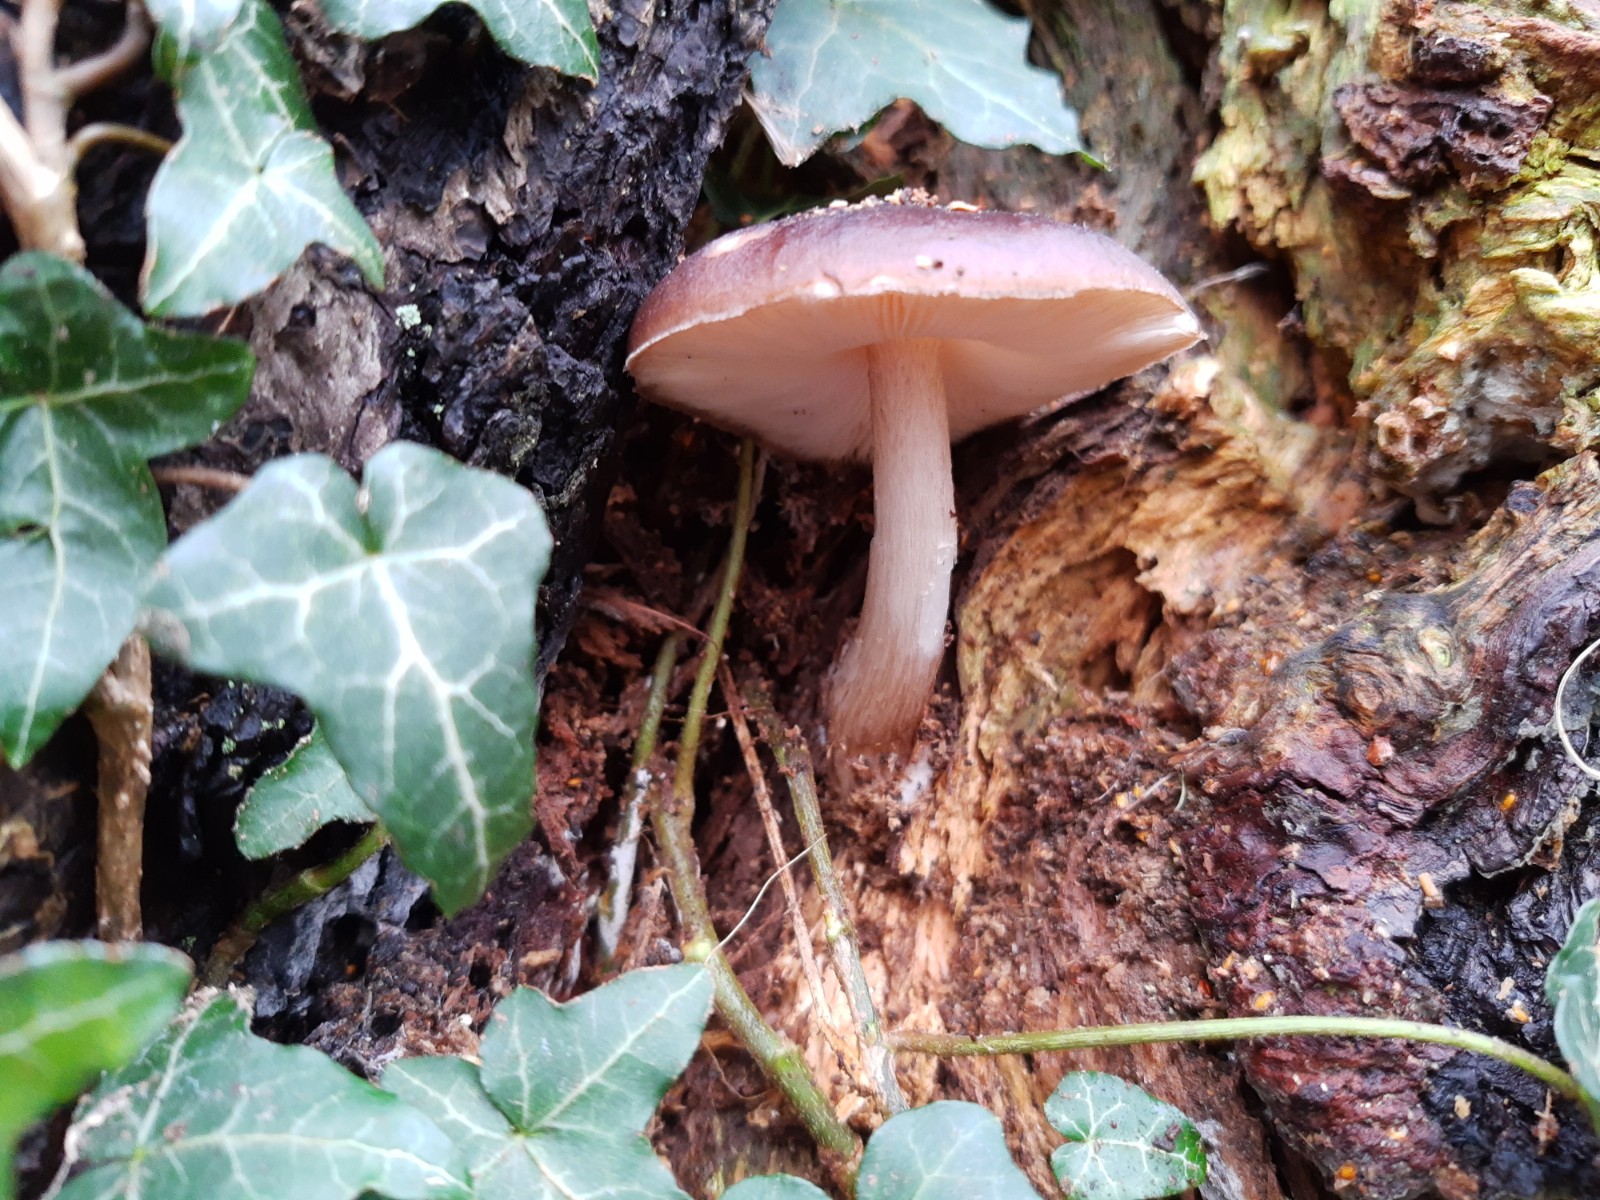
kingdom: Fungi
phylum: Basidiomycota
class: Agaricomycetes
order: Agaricales
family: Pluteaceae
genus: Pluteus
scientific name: Pluteus cervinus
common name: sodfarvet skærmhat
